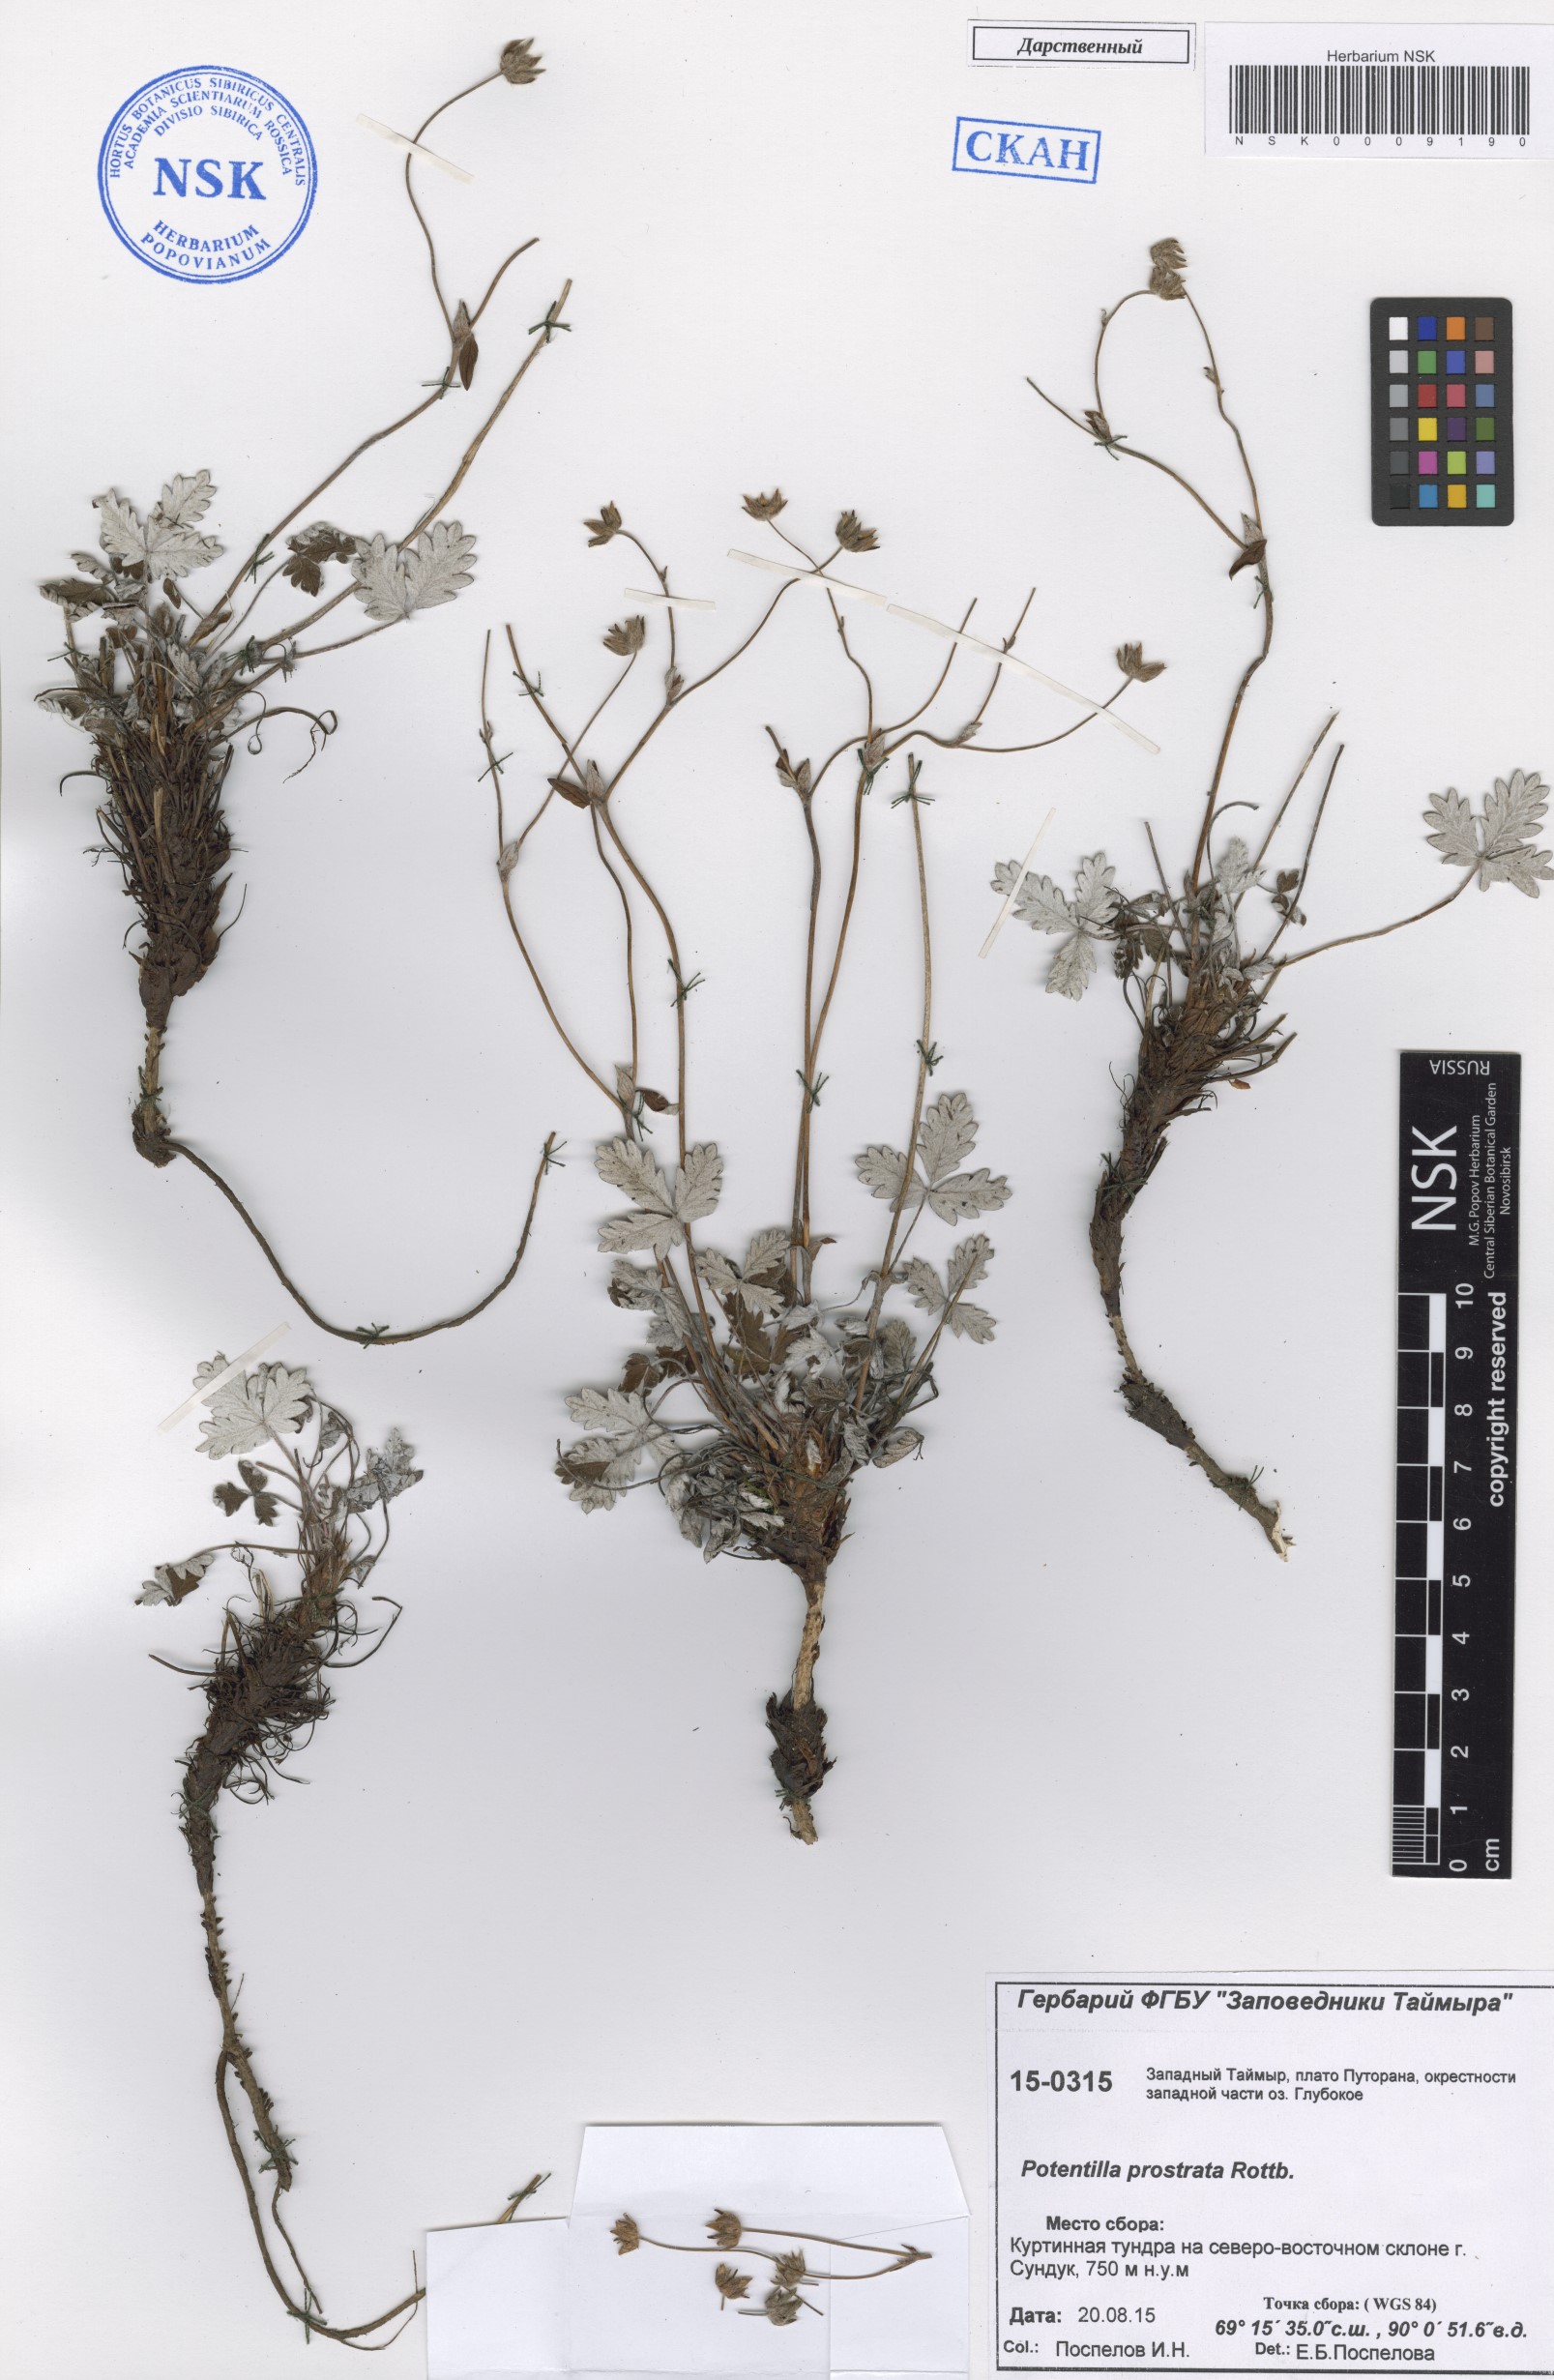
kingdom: Plantae
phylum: Tracheophyta
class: Magnoliopsida
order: Rosales
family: Rosaceae
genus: Potentilla
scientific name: Potentilla prostrata
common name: Prostrate cinquefoil
